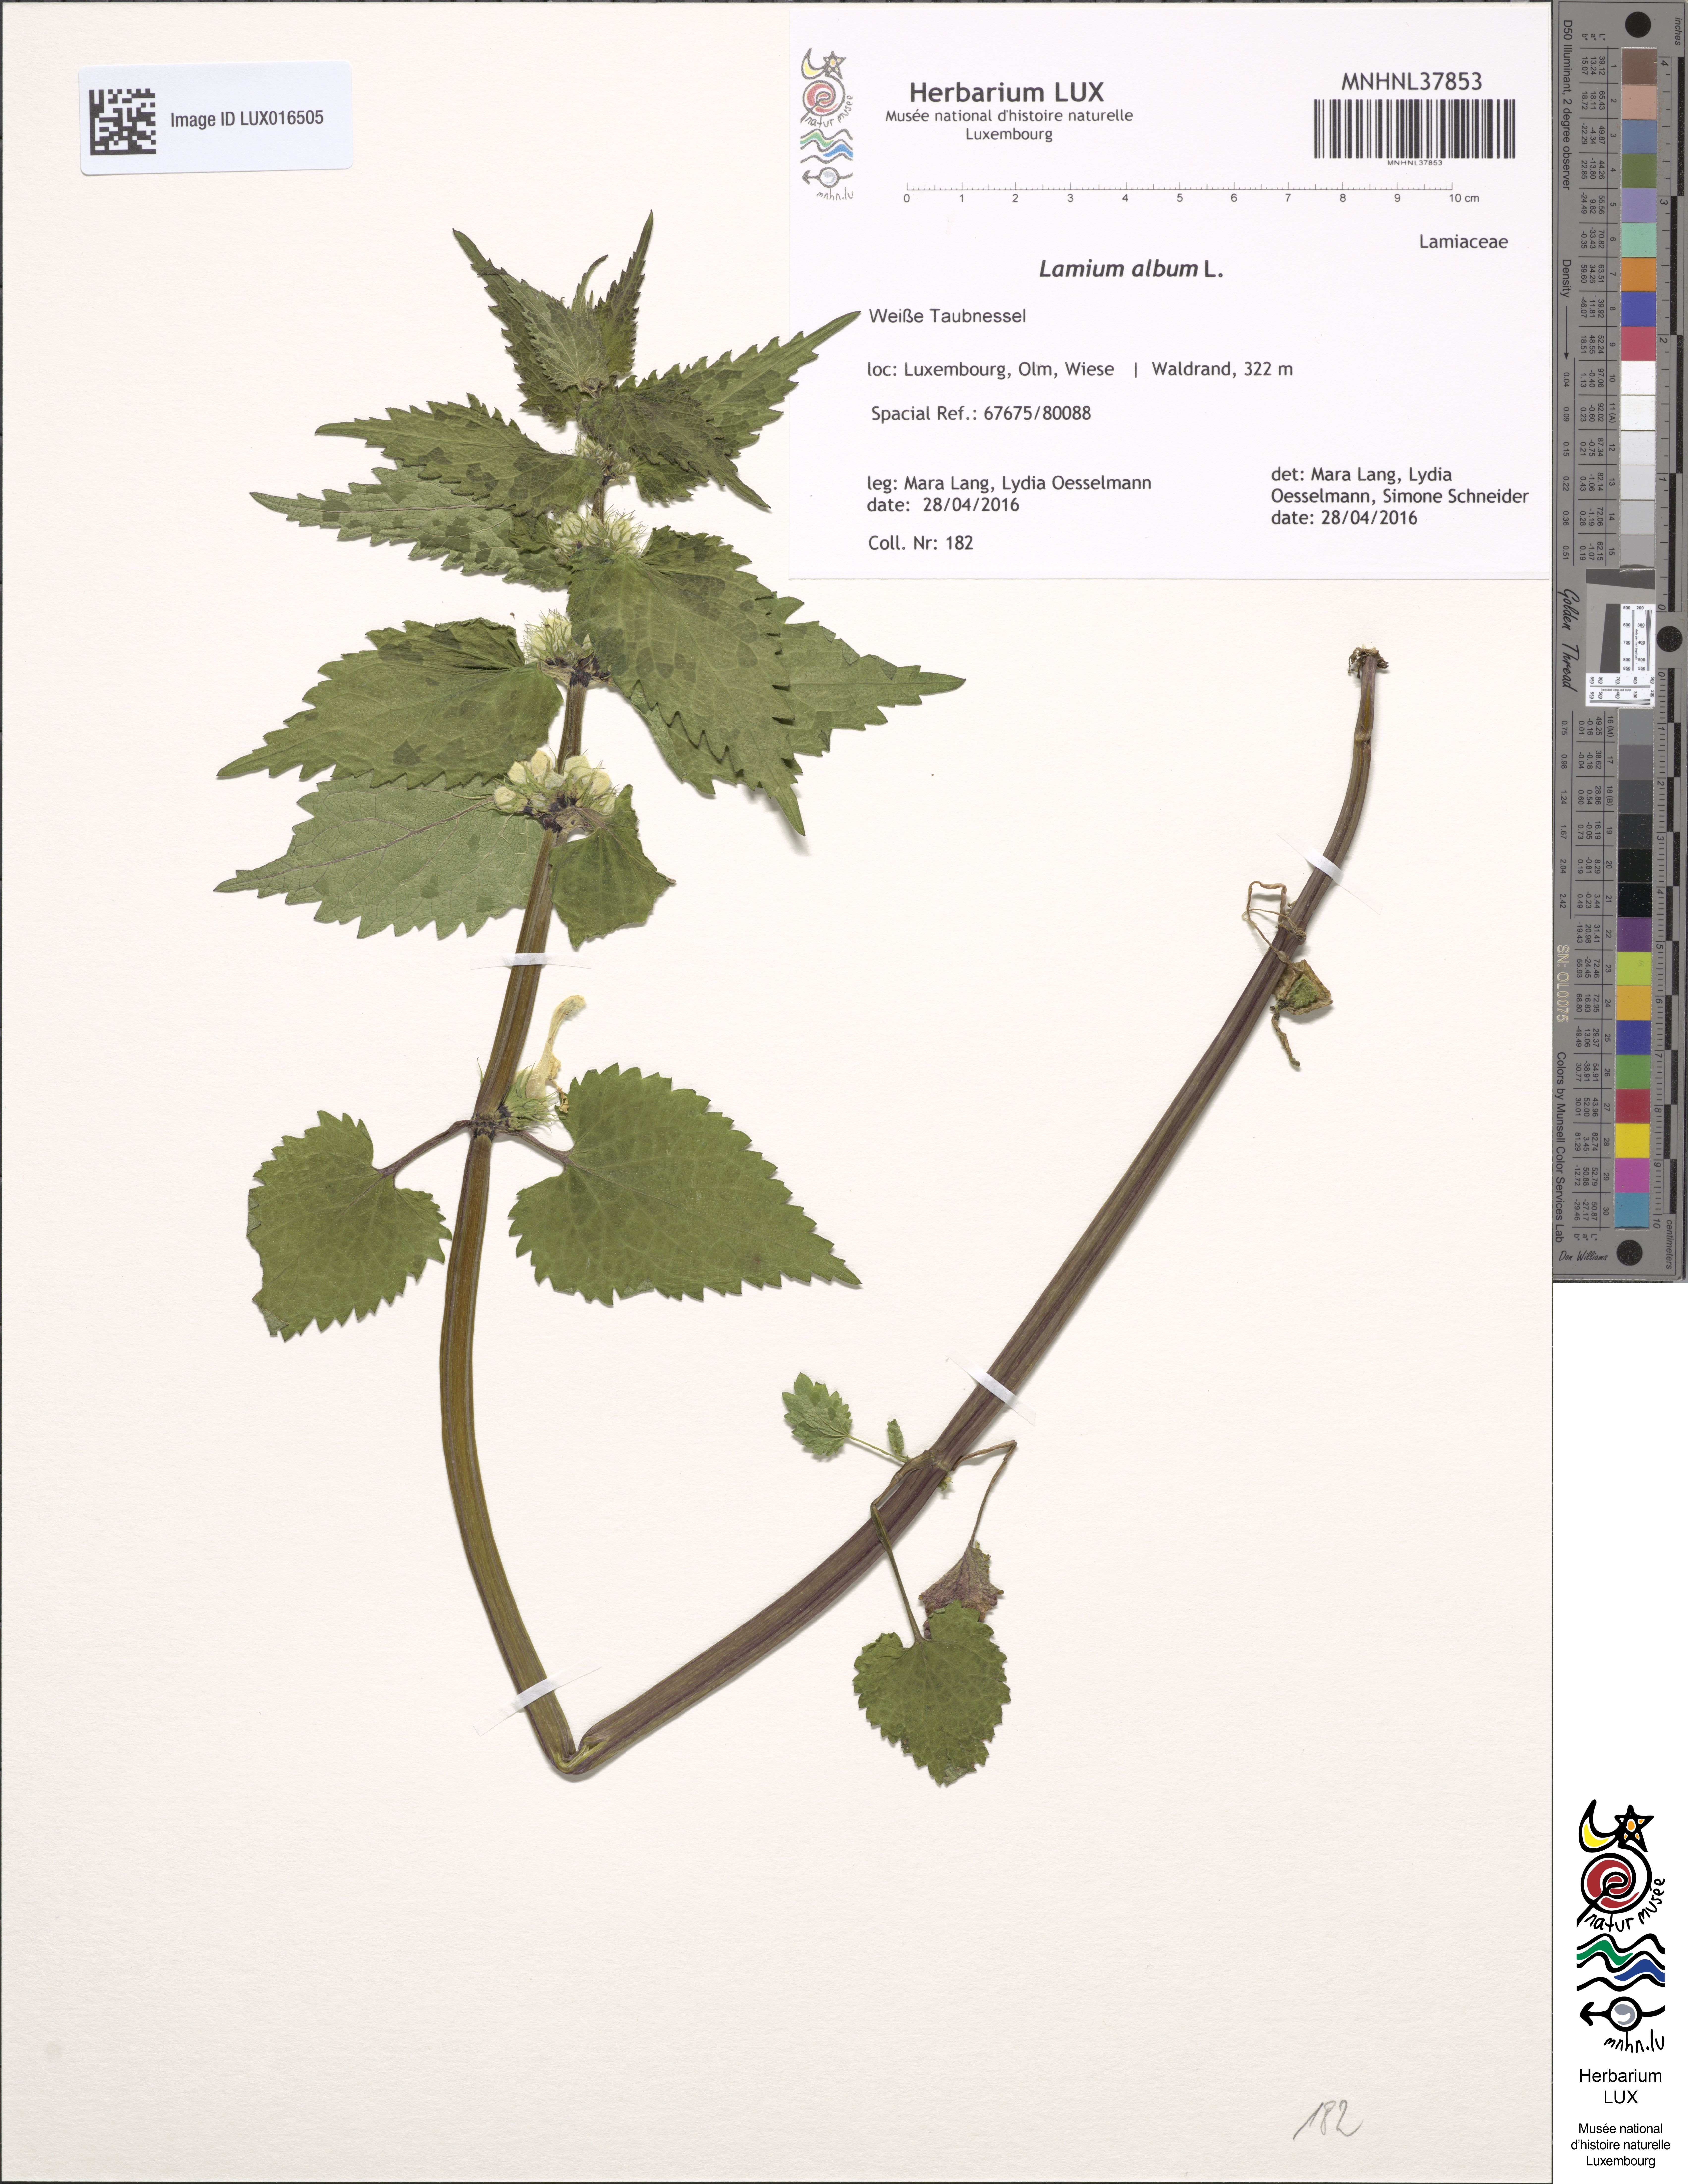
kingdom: Plantae
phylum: Tracheophyta
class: Magnoliopsida
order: Lamiales
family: Lamiaceae
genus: Lamium
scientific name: Lamium album
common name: White dead-nettle
